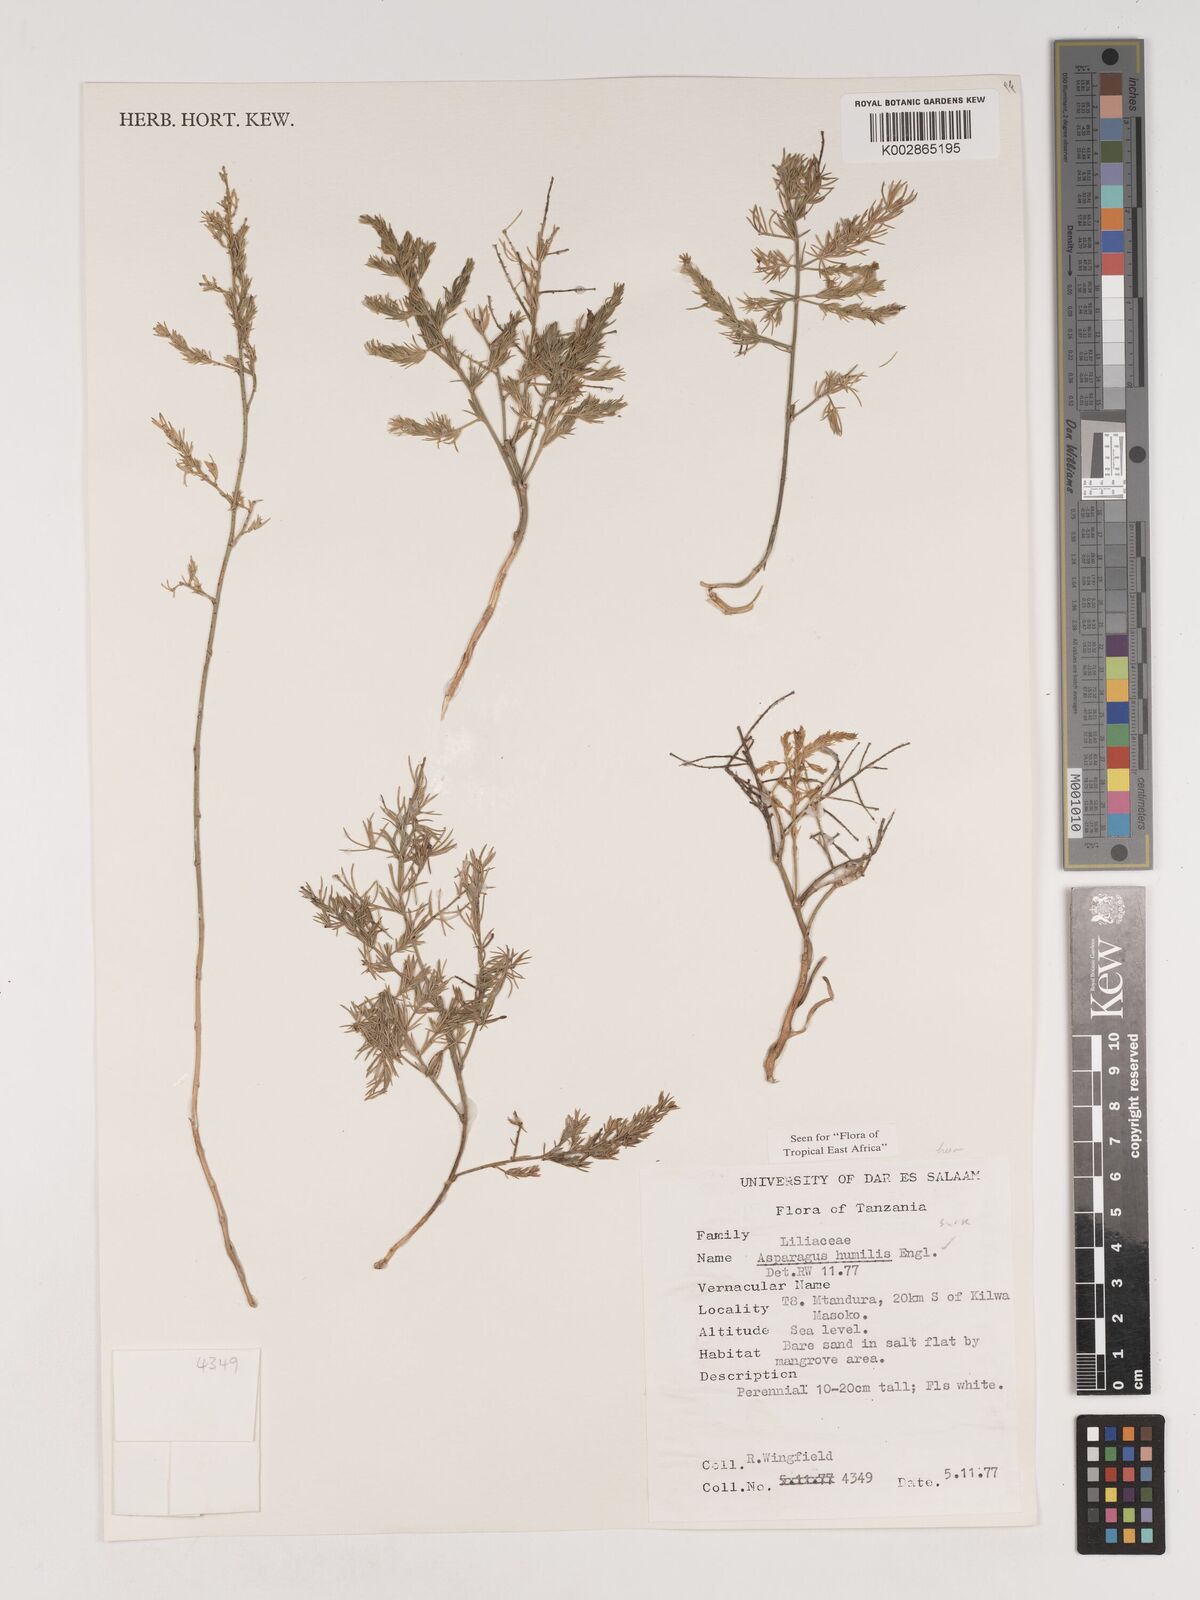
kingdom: Plantae
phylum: Tracheophyta
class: Liliopsida
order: Asparagales
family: Asparagaceae
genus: Asparagus
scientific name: Asparagus asparagoides
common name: African asparagus fern
